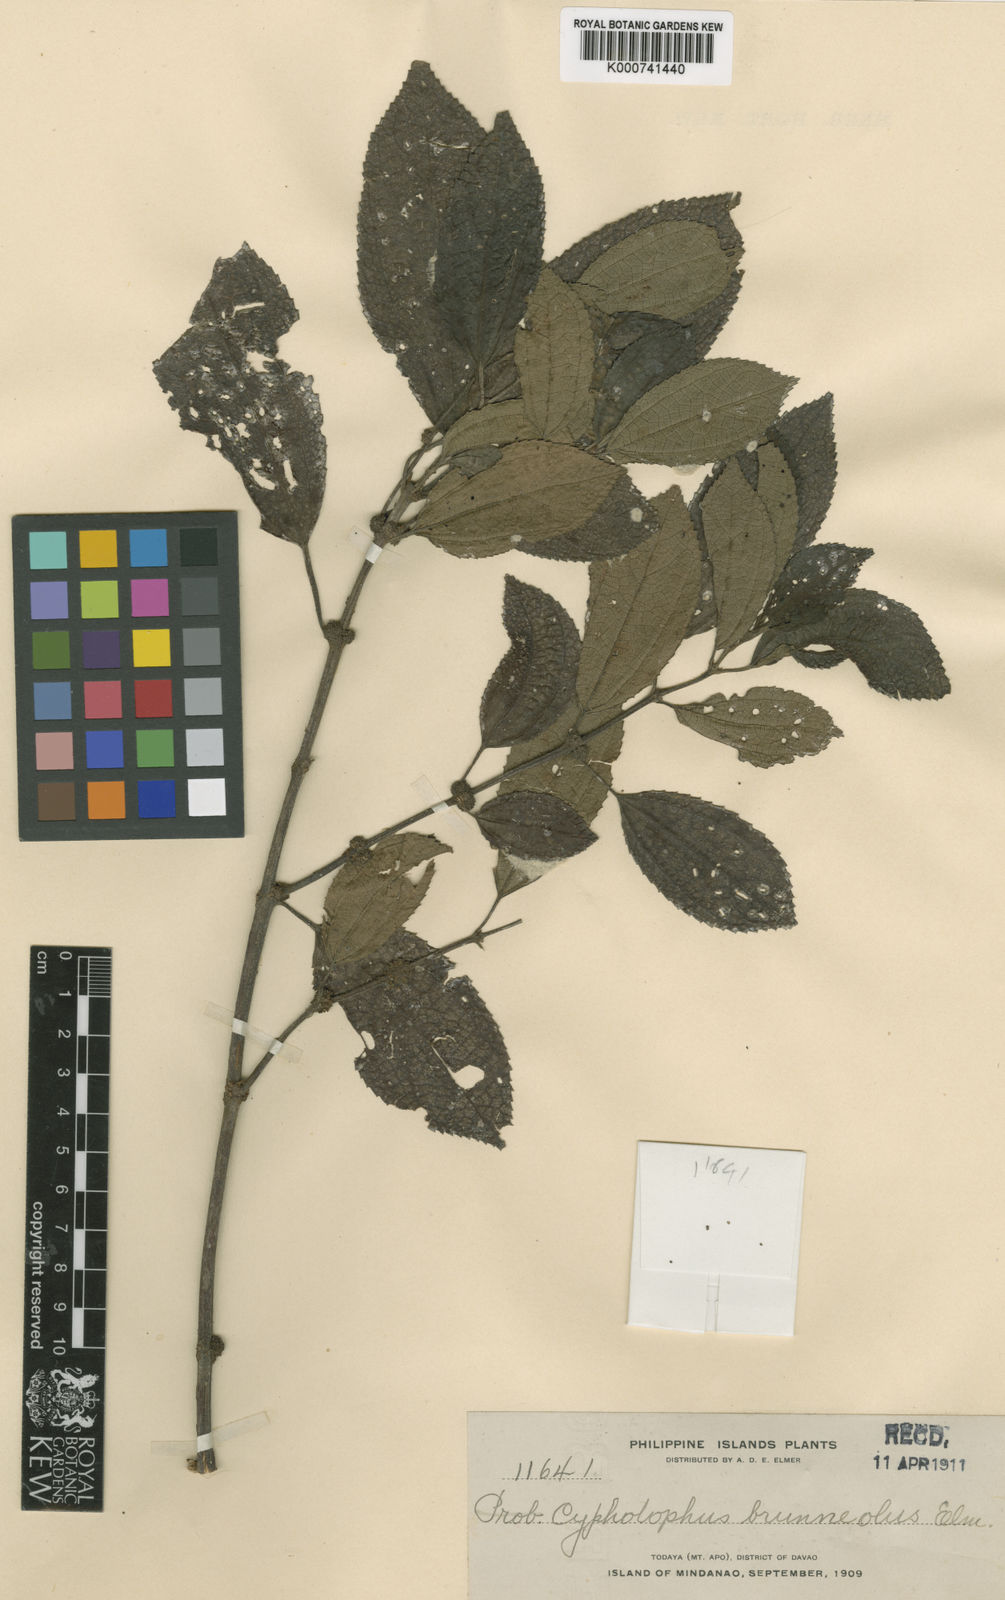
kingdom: Plantae
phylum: Tracheophyta
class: Magnoliopsida
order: Rosales
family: Urticaceae
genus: Cypholophus
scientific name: Cypholophus brunneolus
